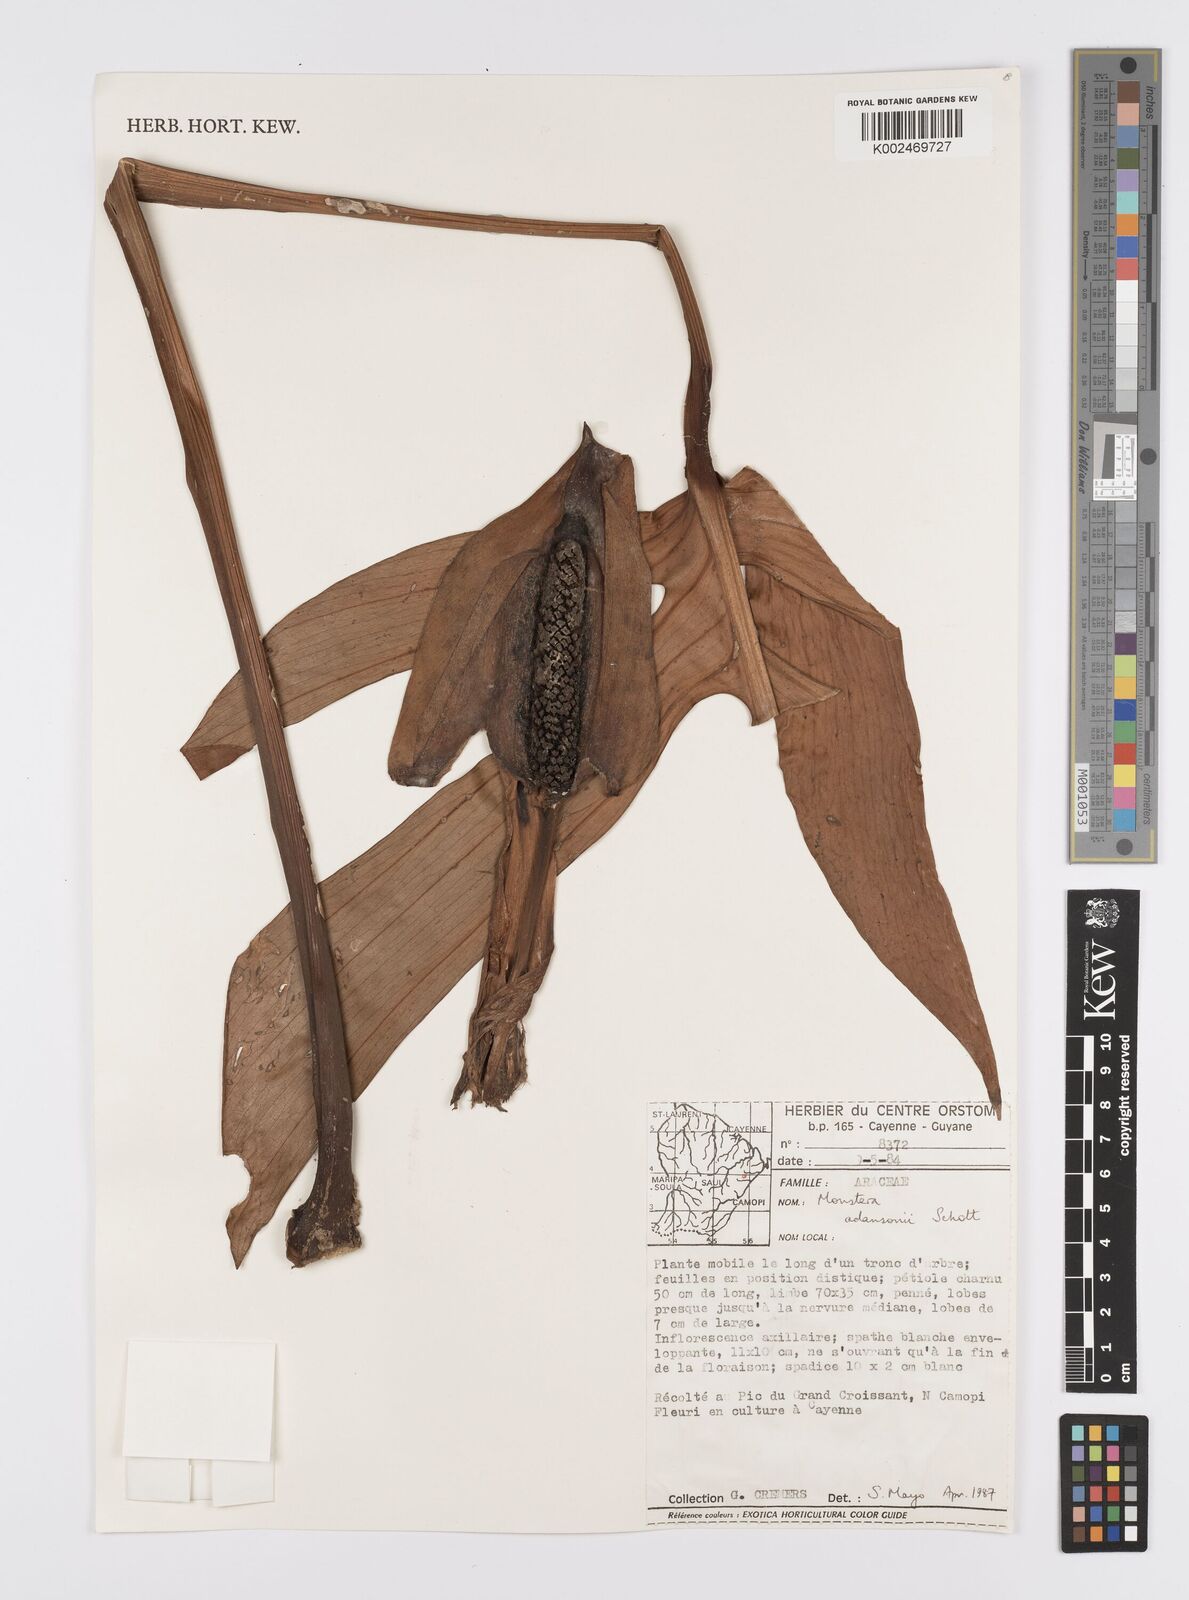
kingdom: Plantae
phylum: Tracheophyta
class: Liliopsida
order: Alismatales
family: Araceae
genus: Monstera
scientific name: Monstera adansonii
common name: Tarovine
